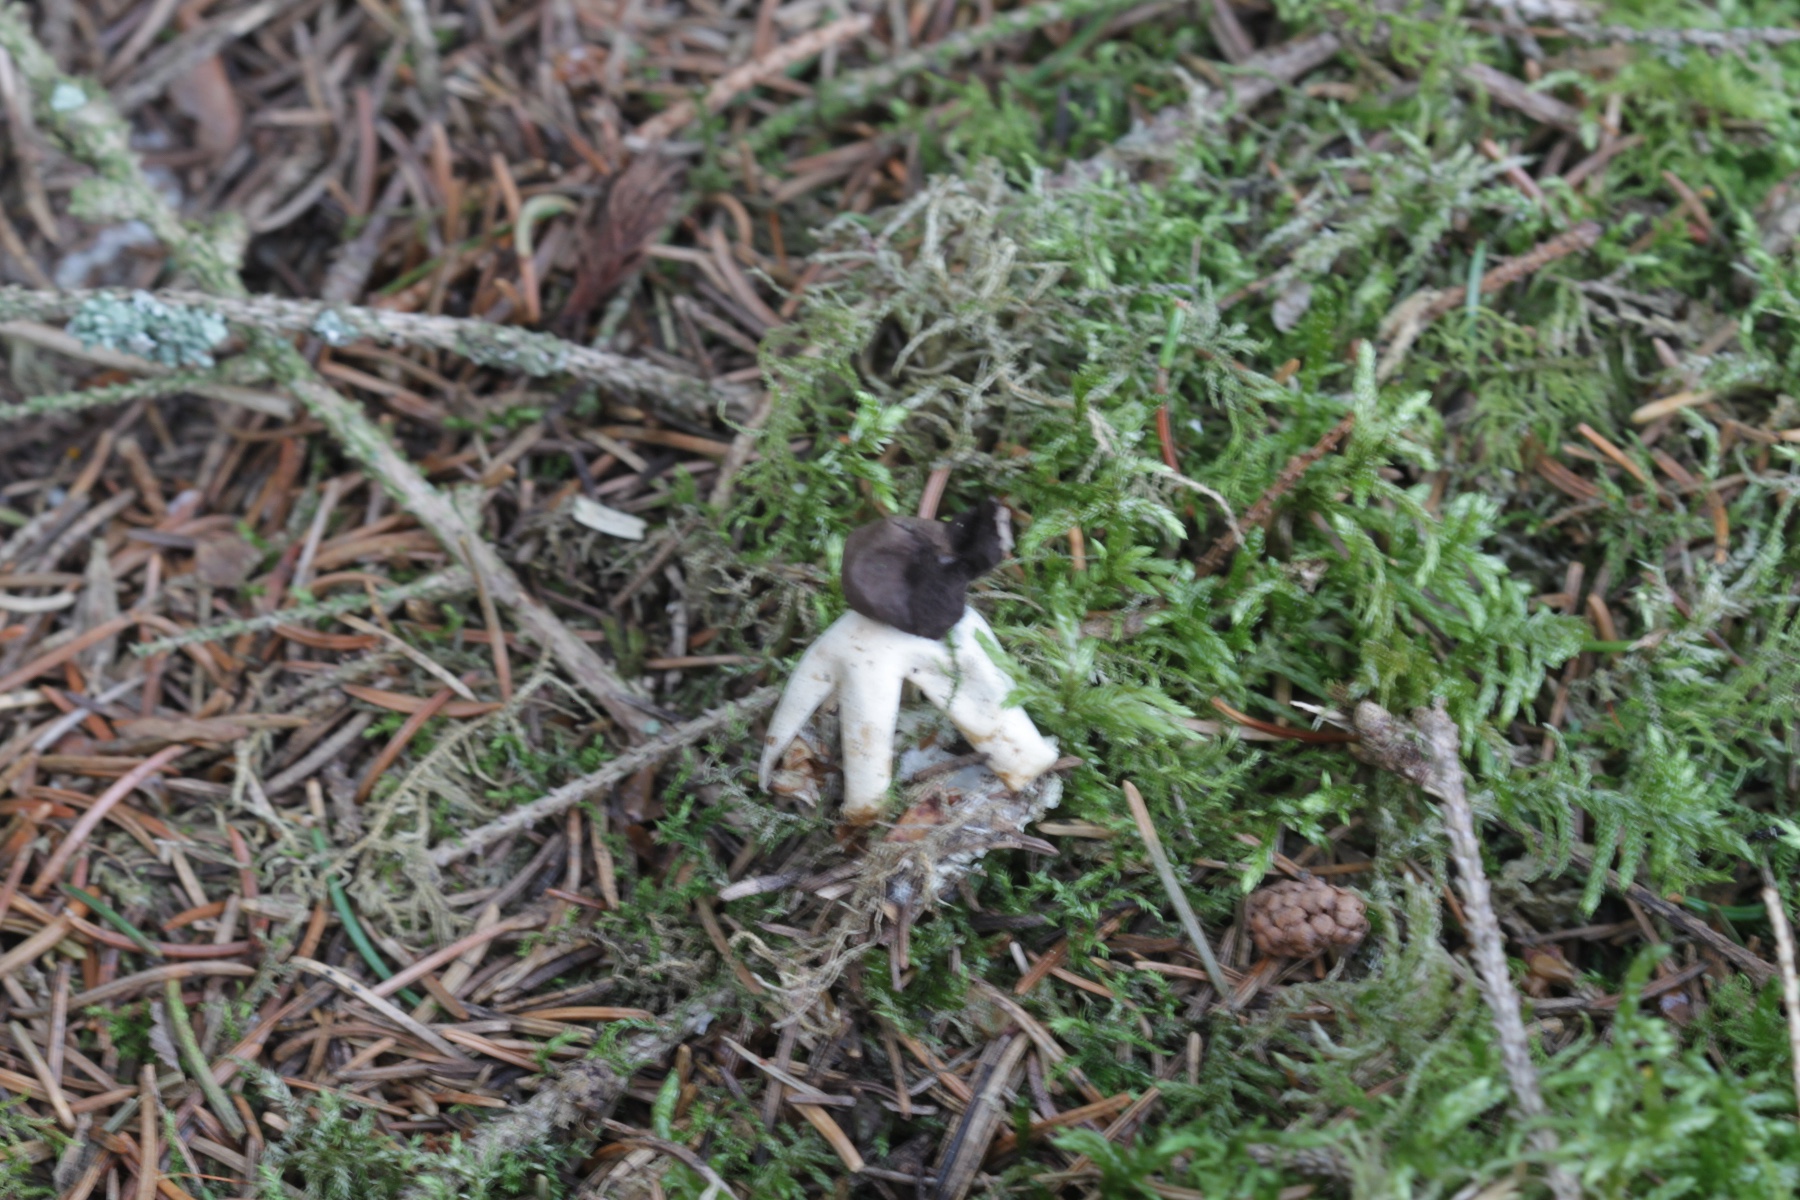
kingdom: Fungi
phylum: Basidiomycota
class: Agaricomycetes
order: Geastrales
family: Geastraceae
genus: Geastrum
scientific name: Geastrum quadrifidum
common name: firfliget stjernebold
